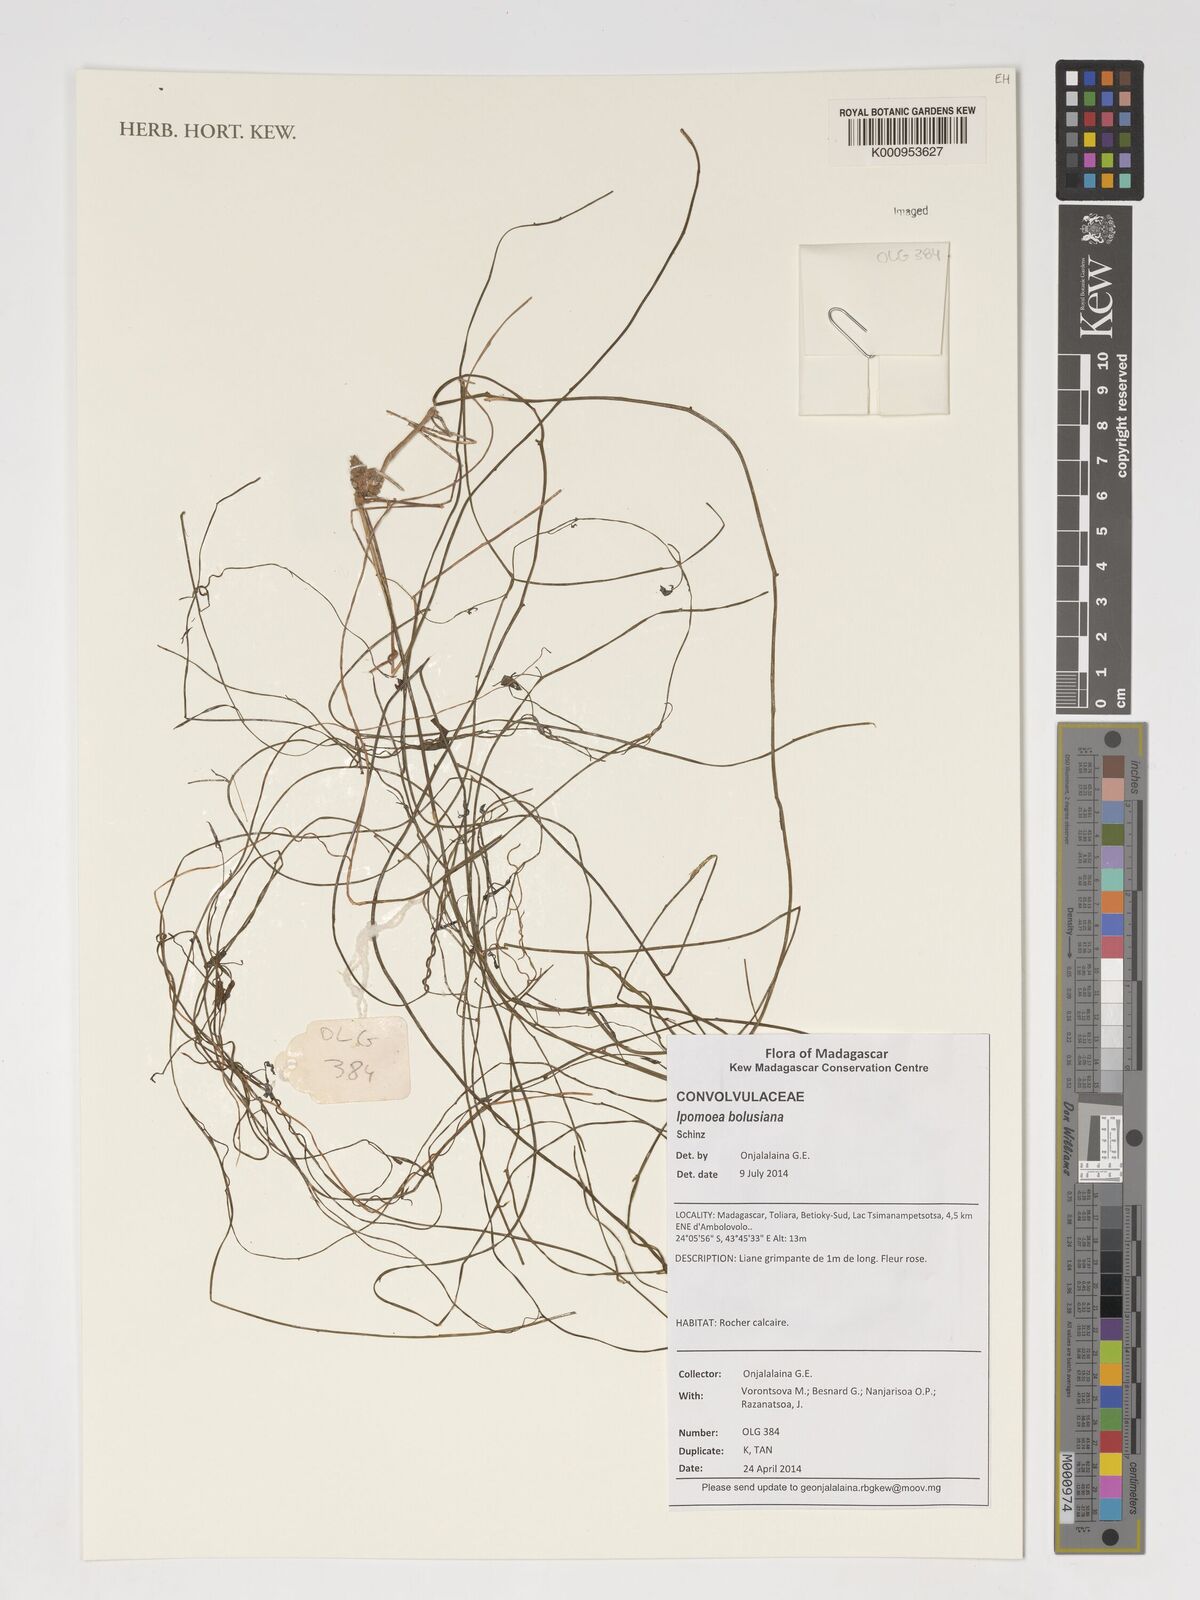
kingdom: Plantae
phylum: Tracheophyta
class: Magnoliopsida
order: Solanales
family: Convolvulaceae
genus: Ipomoea
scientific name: Ipomoea bolusiana
